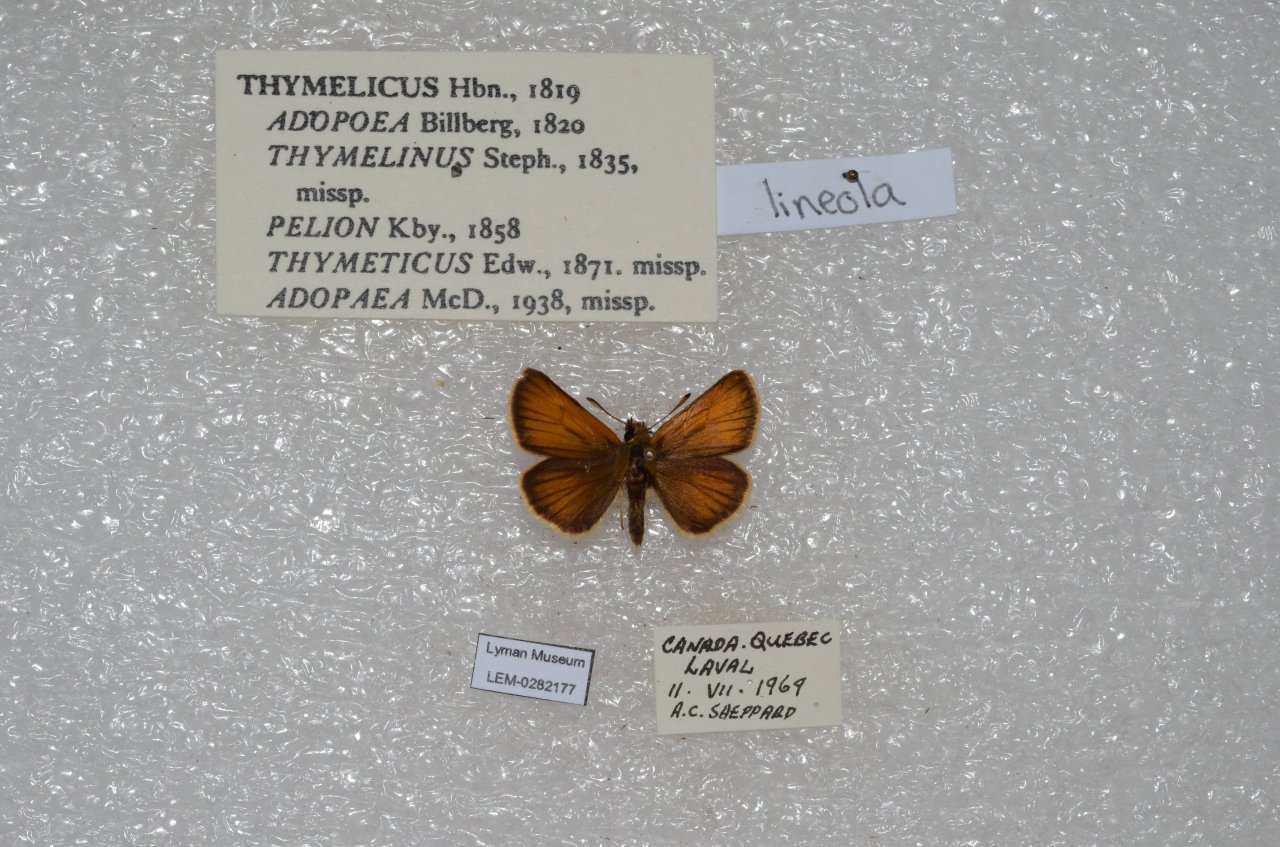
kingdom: Animalia
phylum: Arthropoda
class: Insecta
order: Lepidoptera
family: Hesperiidae
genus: Thymelicus
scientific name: Thymelicus lineola
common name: European Skipper
